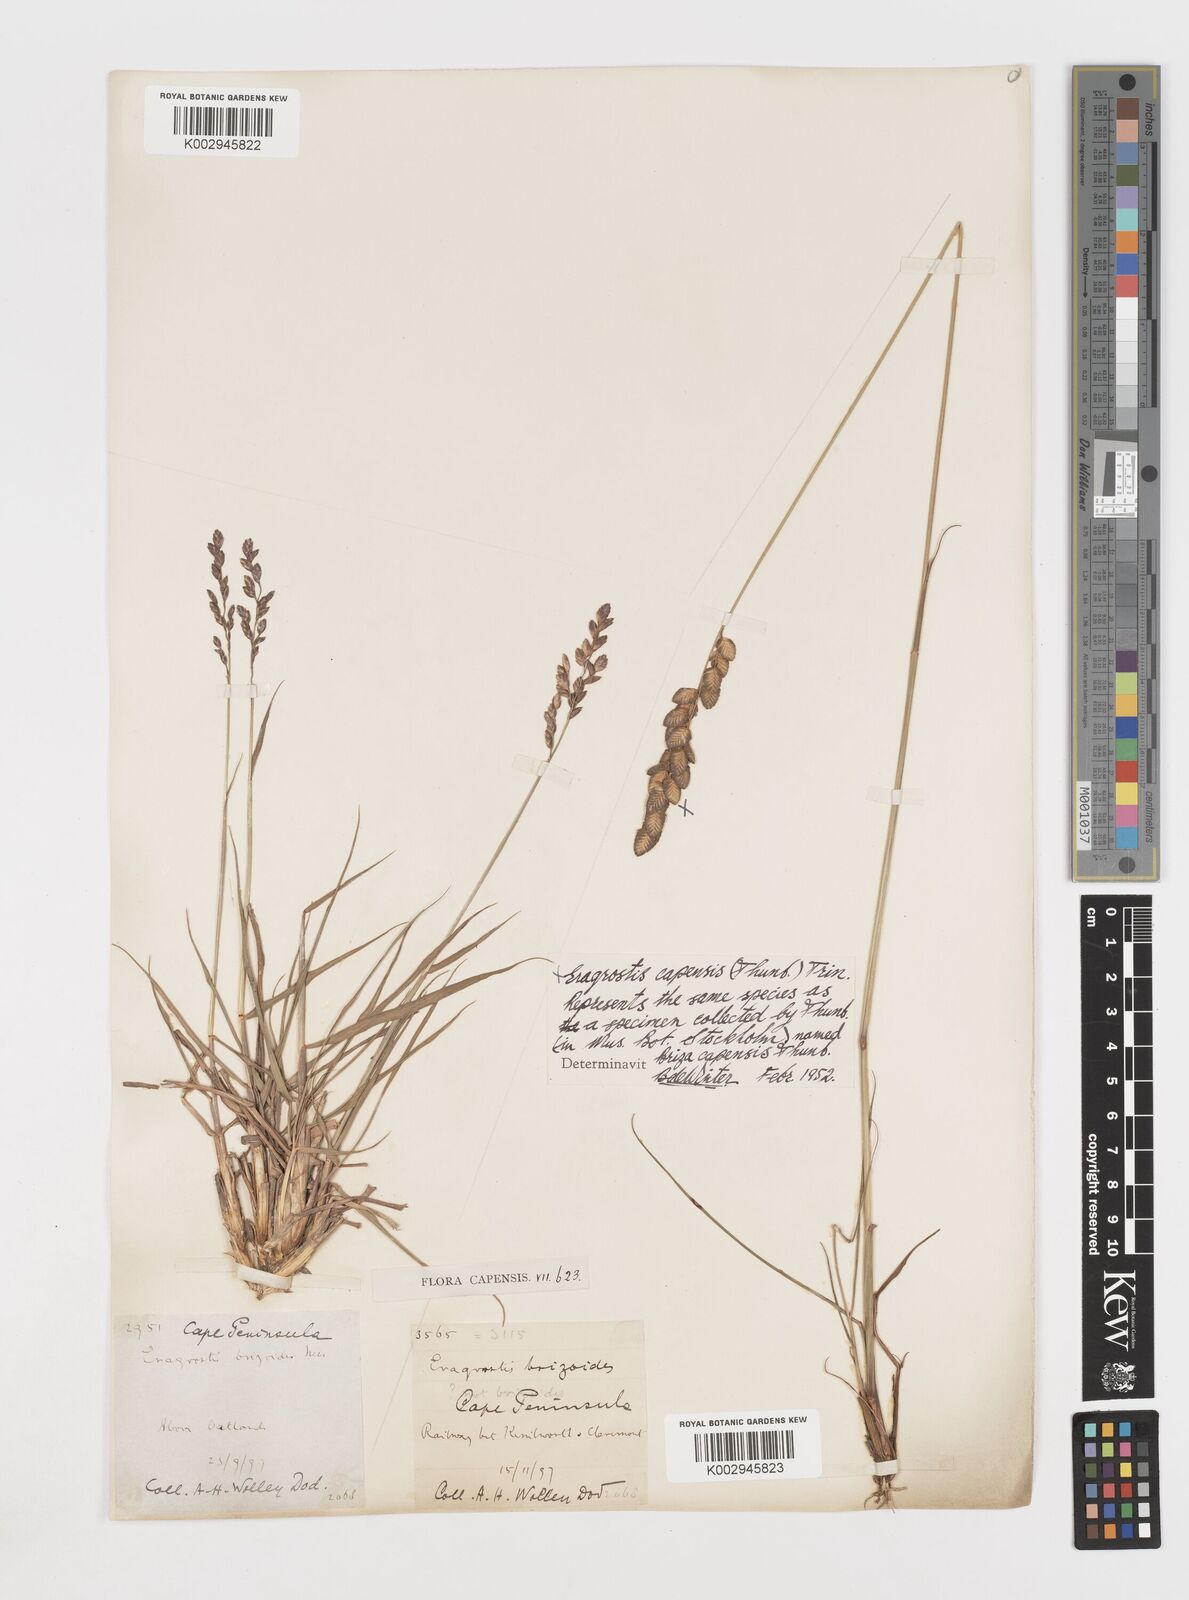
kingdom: Plantae
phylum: Tracheophyta
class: Liliopsida
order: Poales
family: Poaceae
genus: Eragrostis
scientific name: Eragrostis capensis
